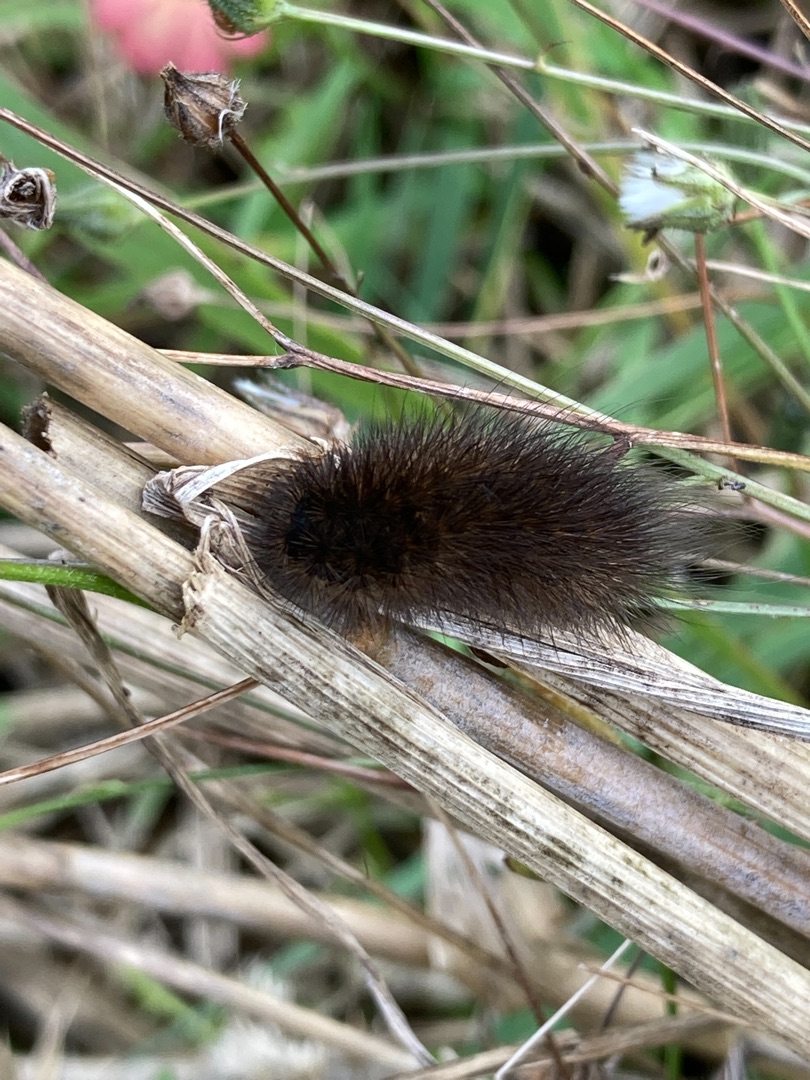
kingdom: Animalia
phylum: Arthropoda
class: Insecta
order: Lepidoptera
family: Erebidae
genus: Phragmatobia
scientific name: Phragmatobia fuliginosa
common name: Kanelbjørn
